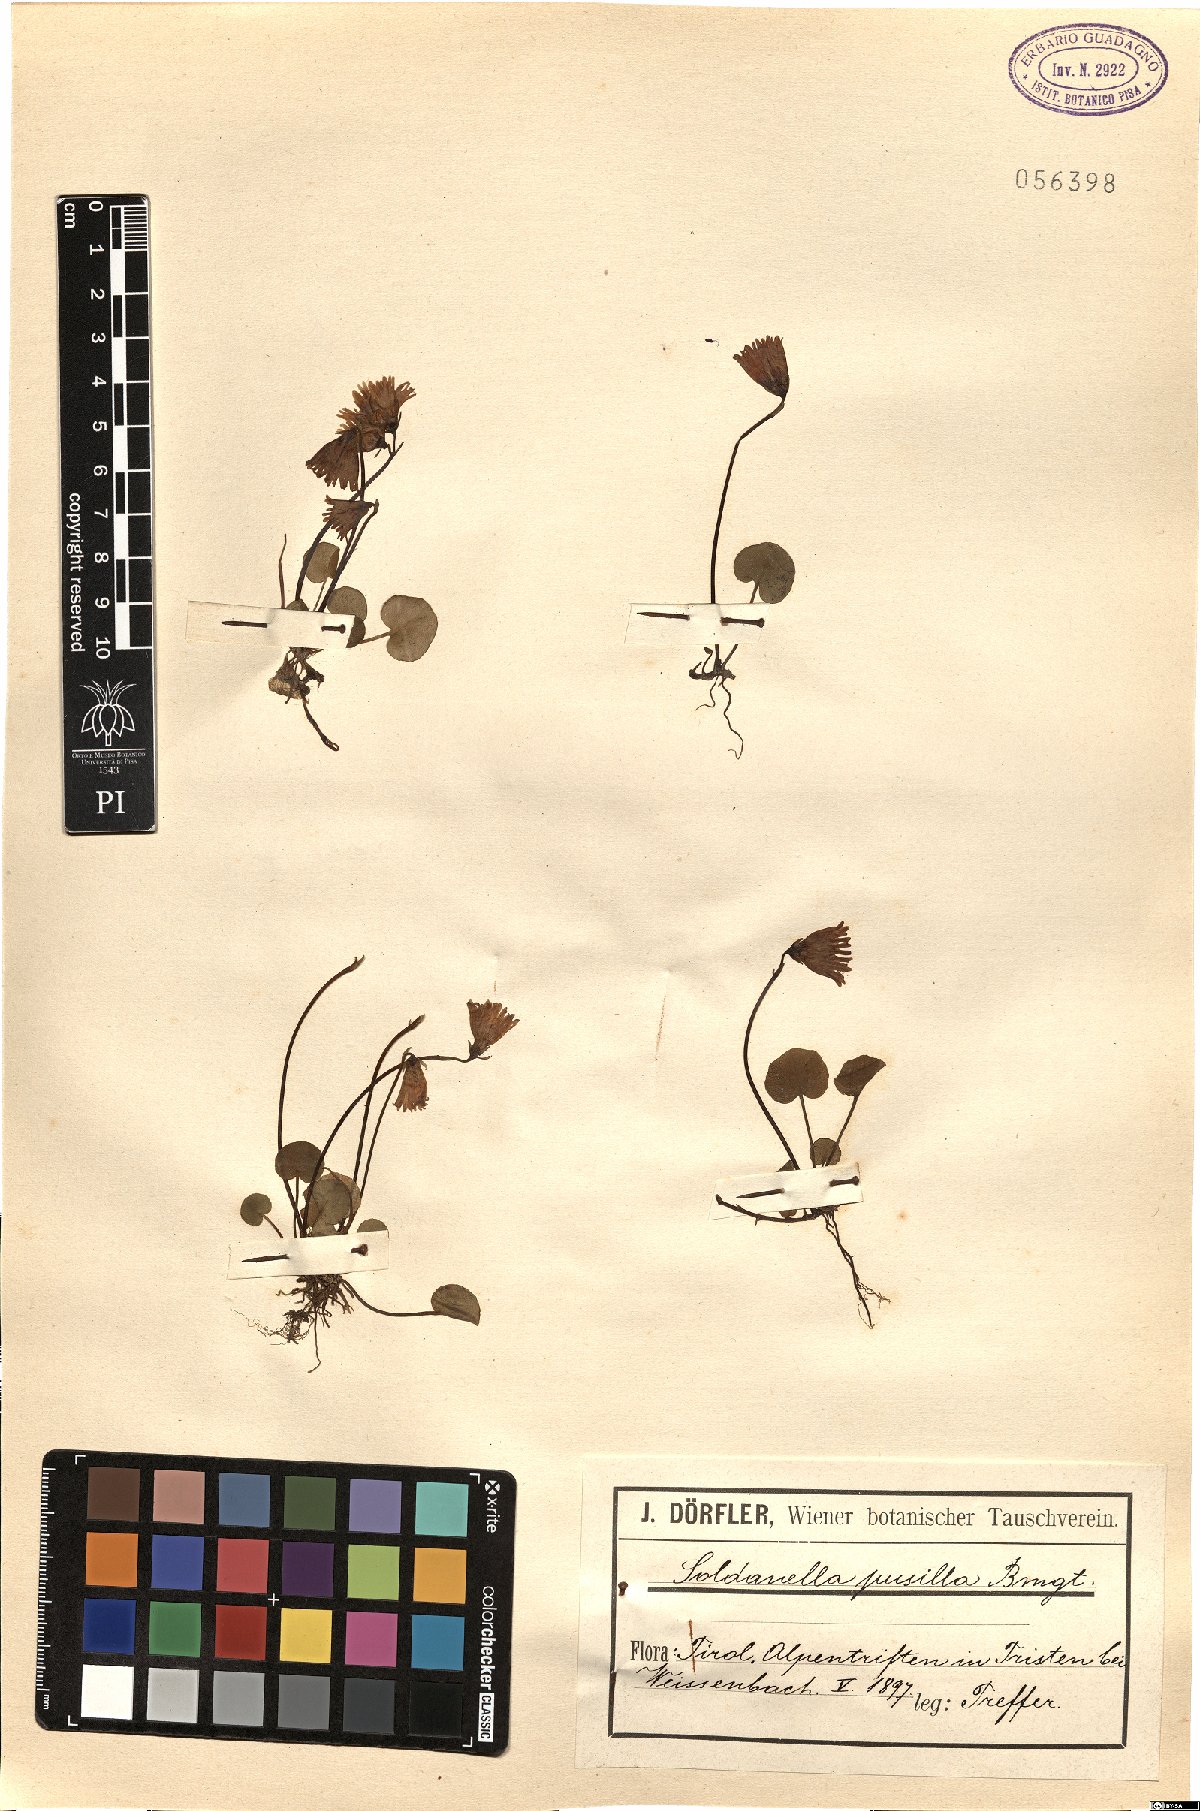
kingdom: Plantae
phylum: Tracheophyta
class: Magnoliopsida
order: Ericales
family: Primulaceae
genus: Soldanella
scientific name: Soldanella pusilla
